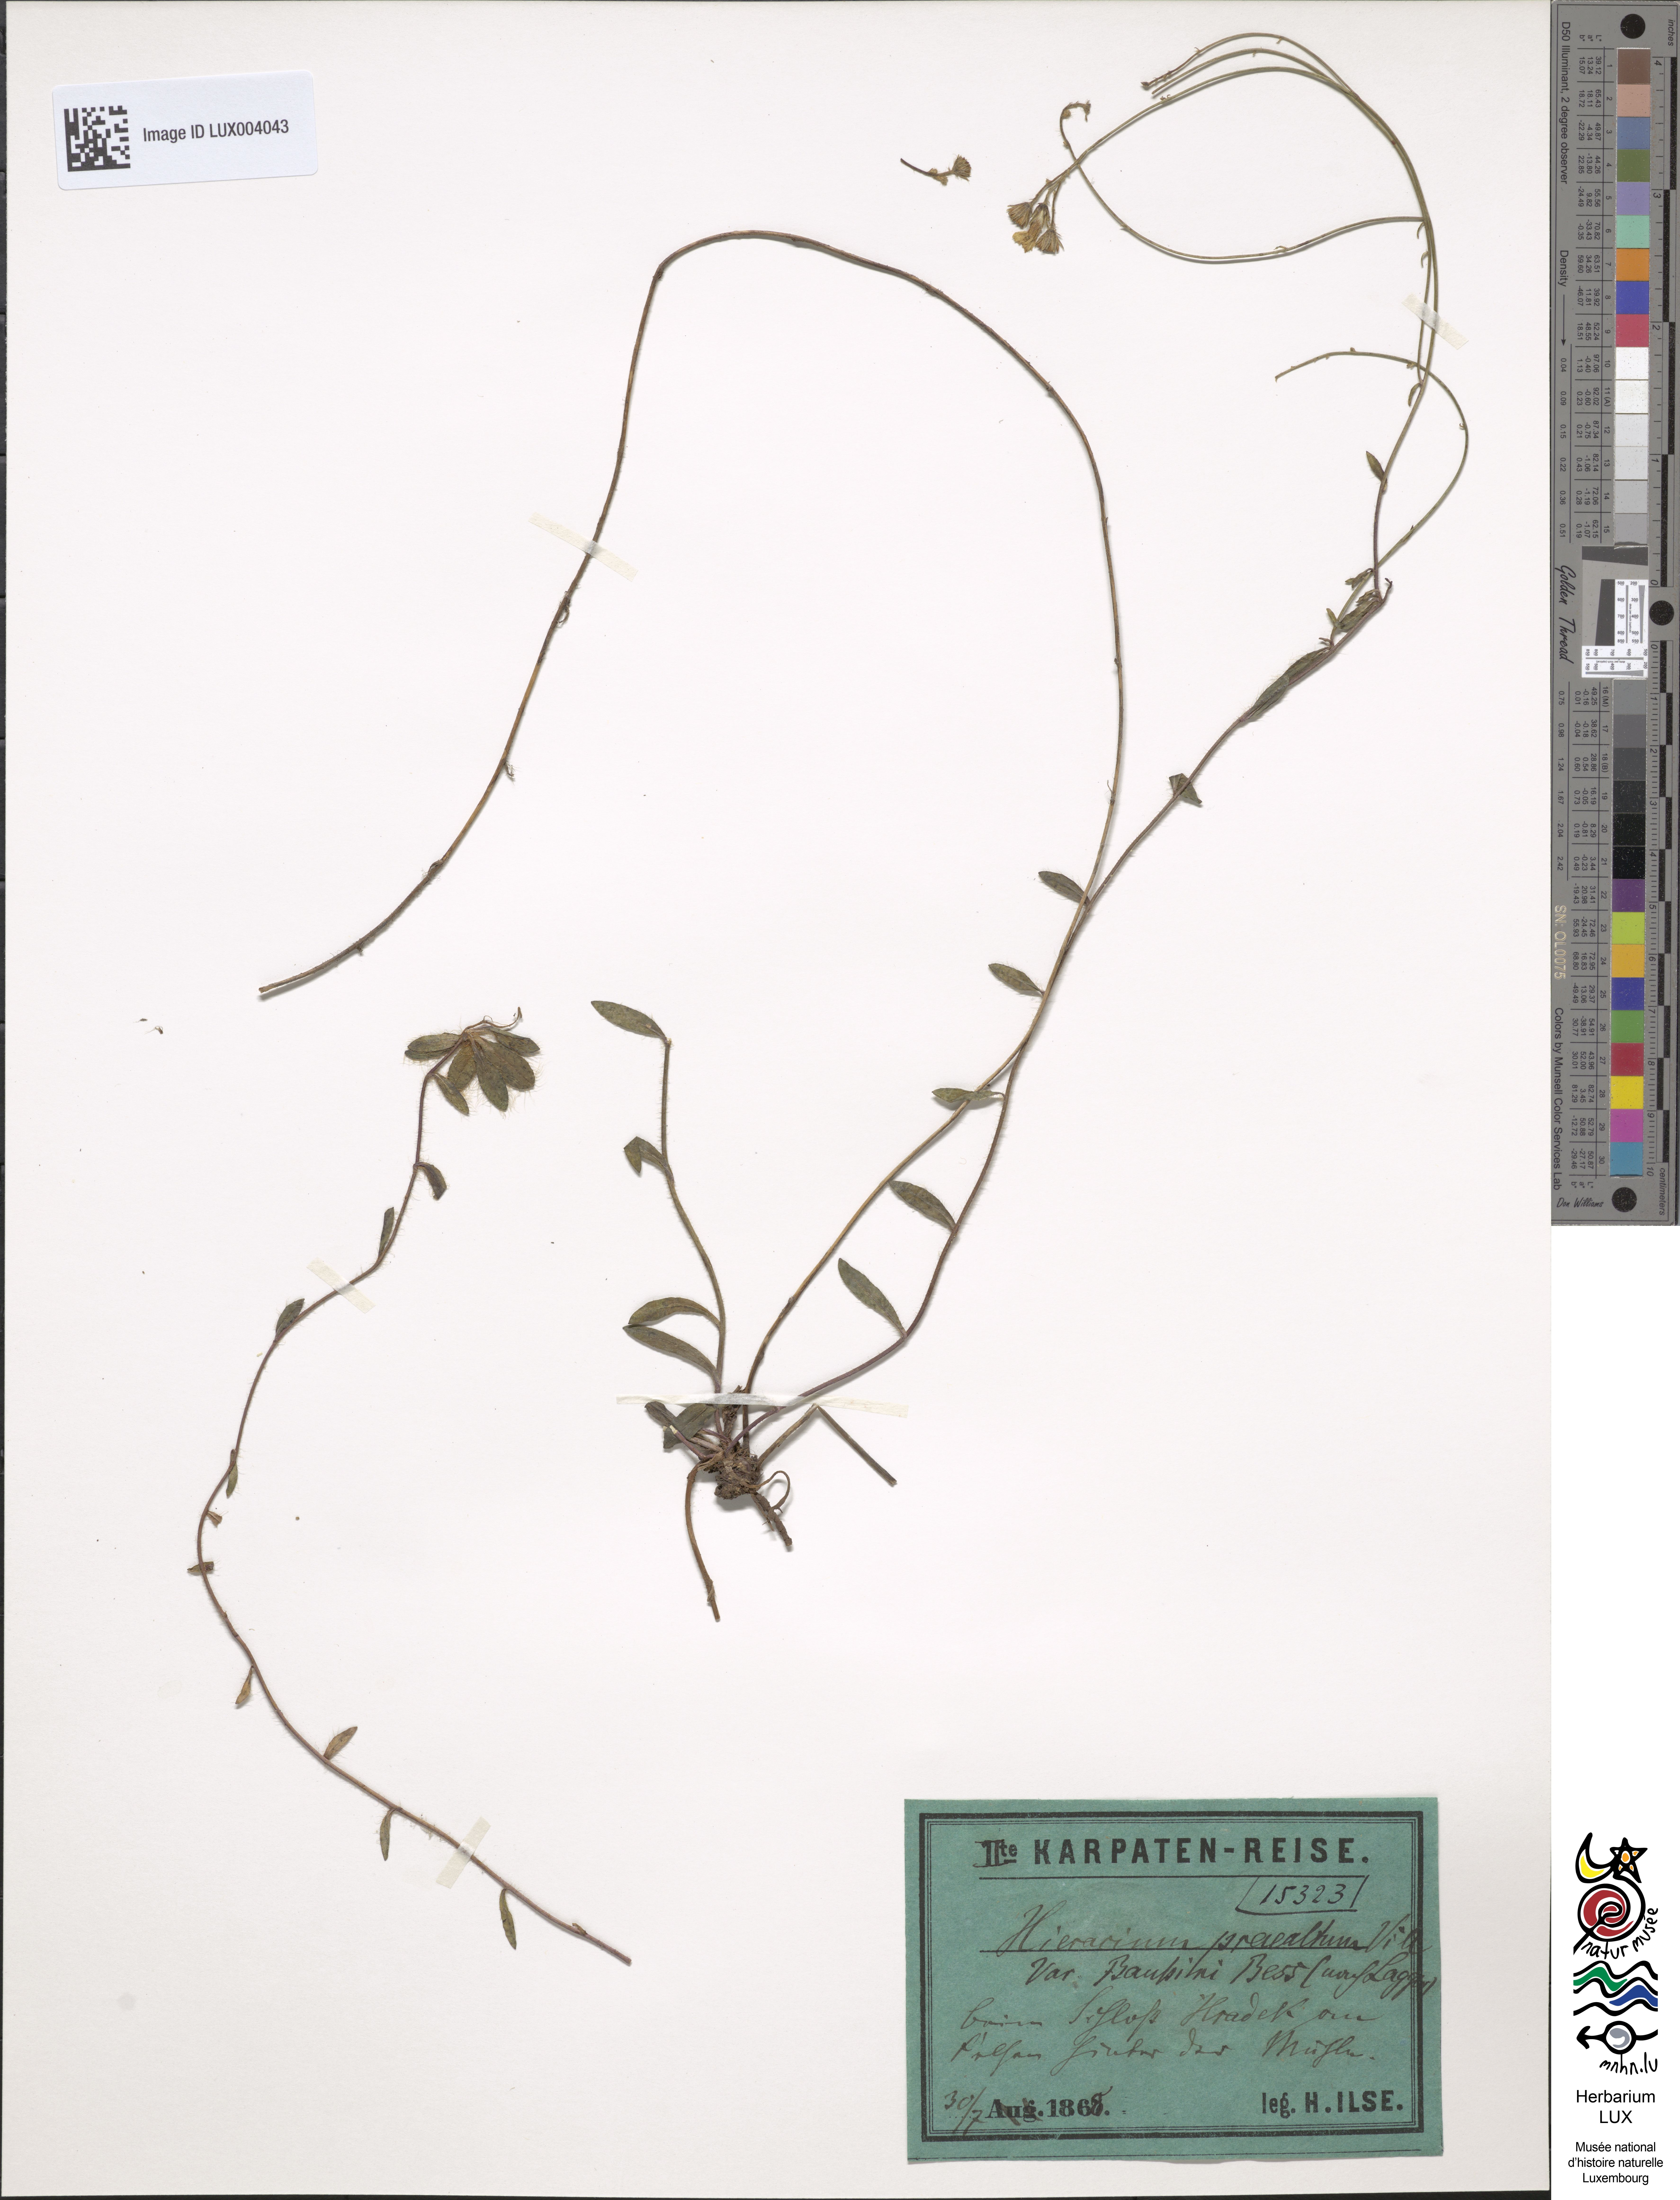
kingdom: Plantae
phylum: Tracheophyta
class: Magnoliopsida
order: Asterales
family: Asteraceae
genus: Hieracium
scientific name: Hieracium piloselloides
